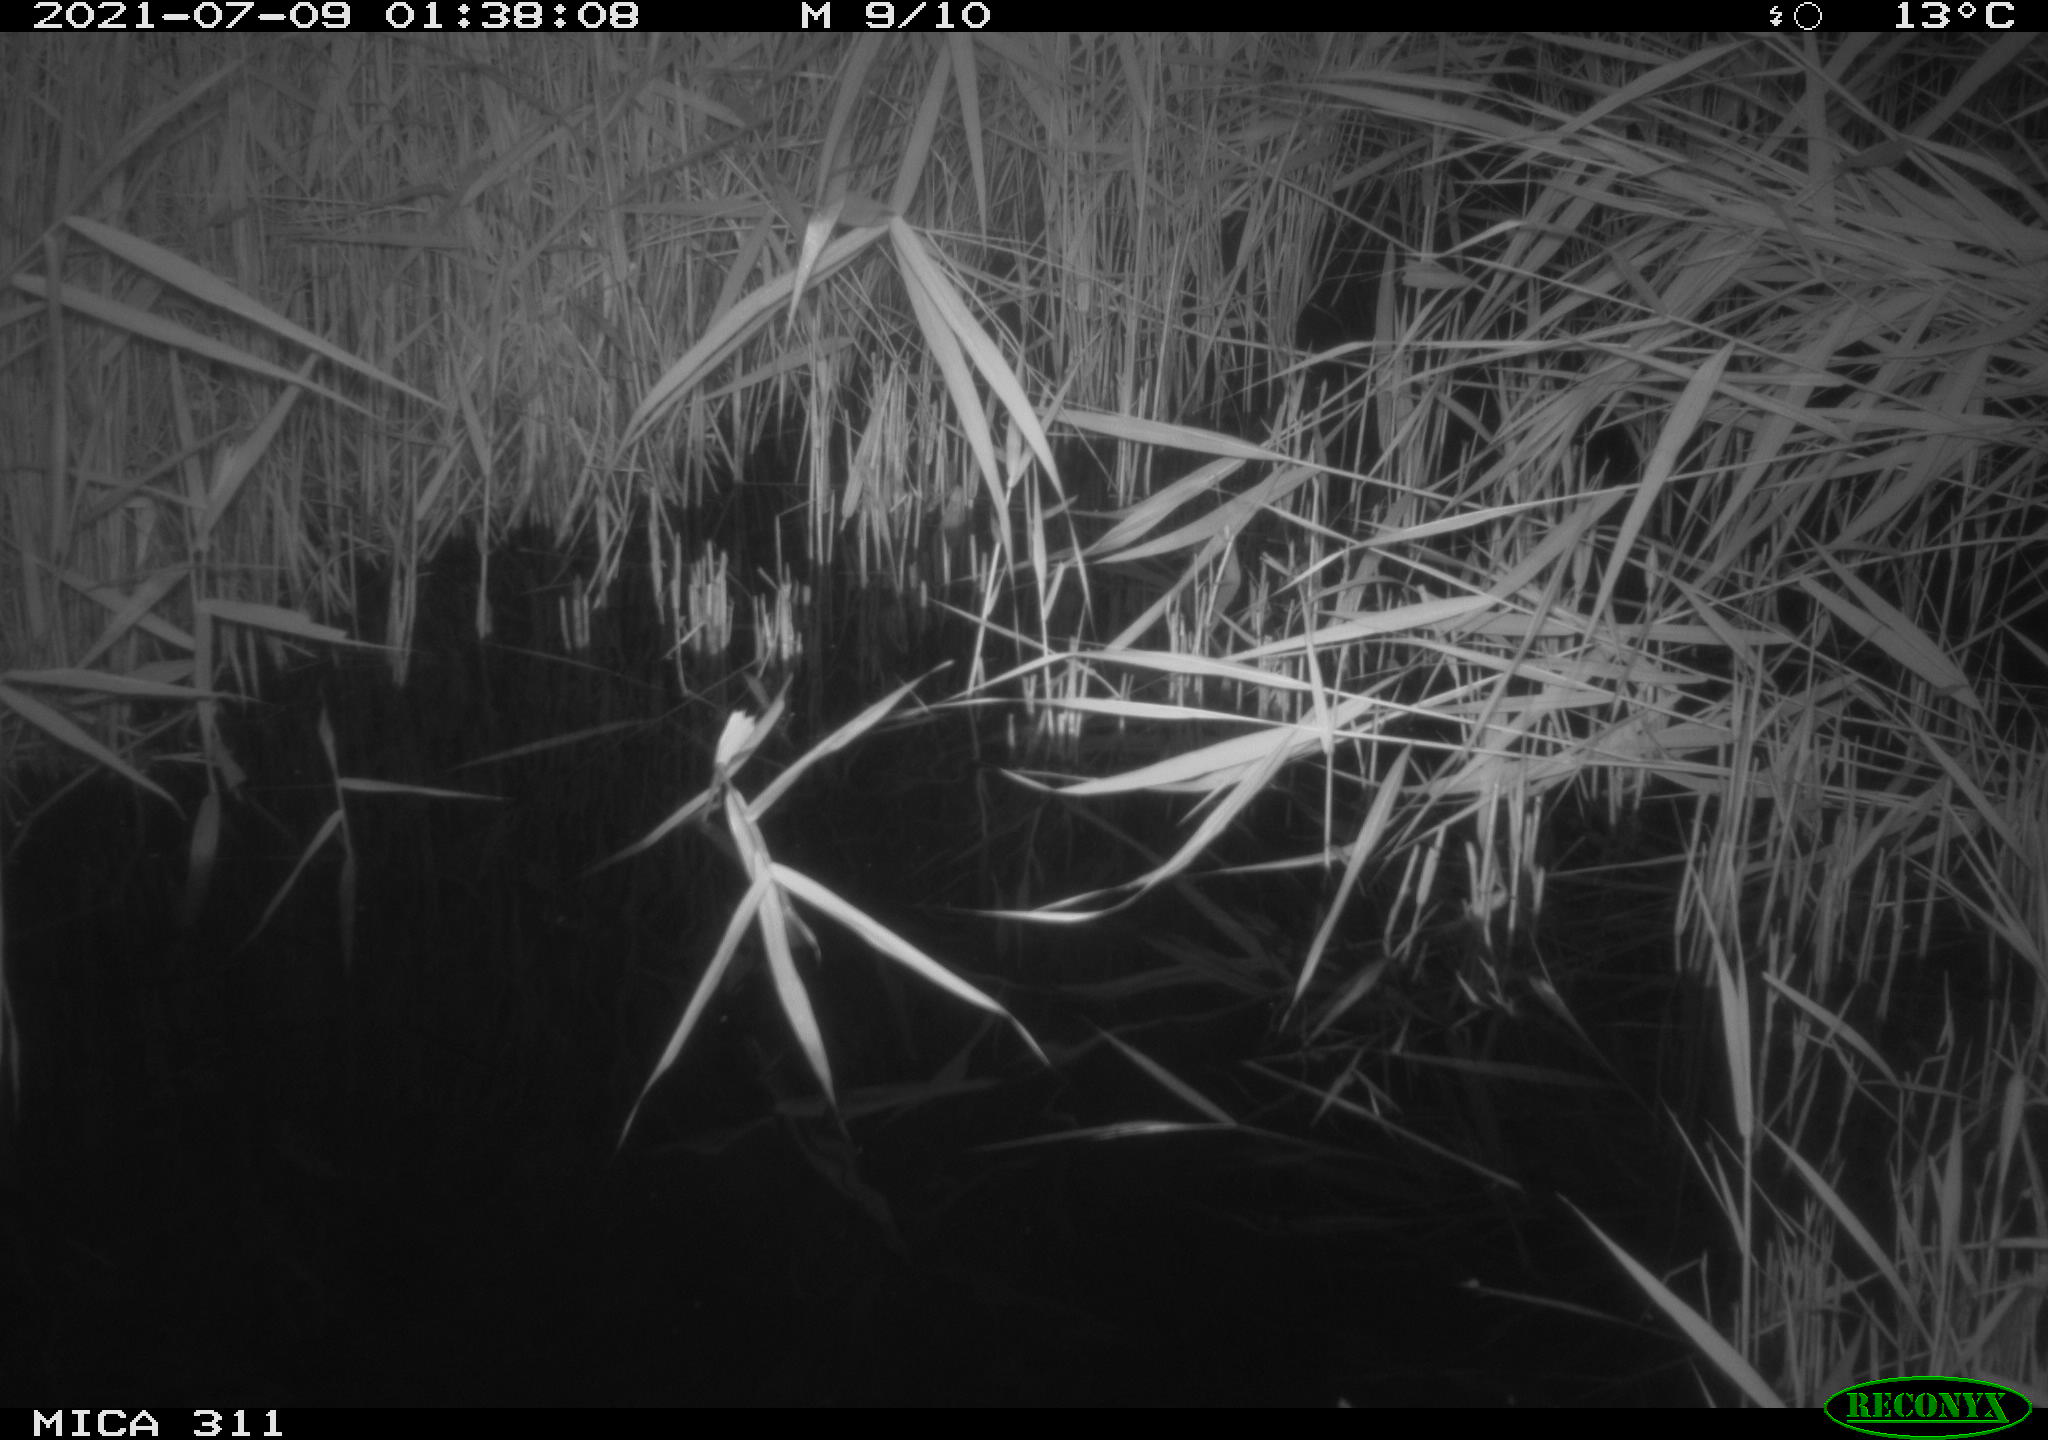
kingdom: Animalia
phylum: Chordata
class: Mammalia
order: Rodentia
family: Muridae
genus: Rattus
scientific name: Rattus norvegicus
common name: Brown rat
